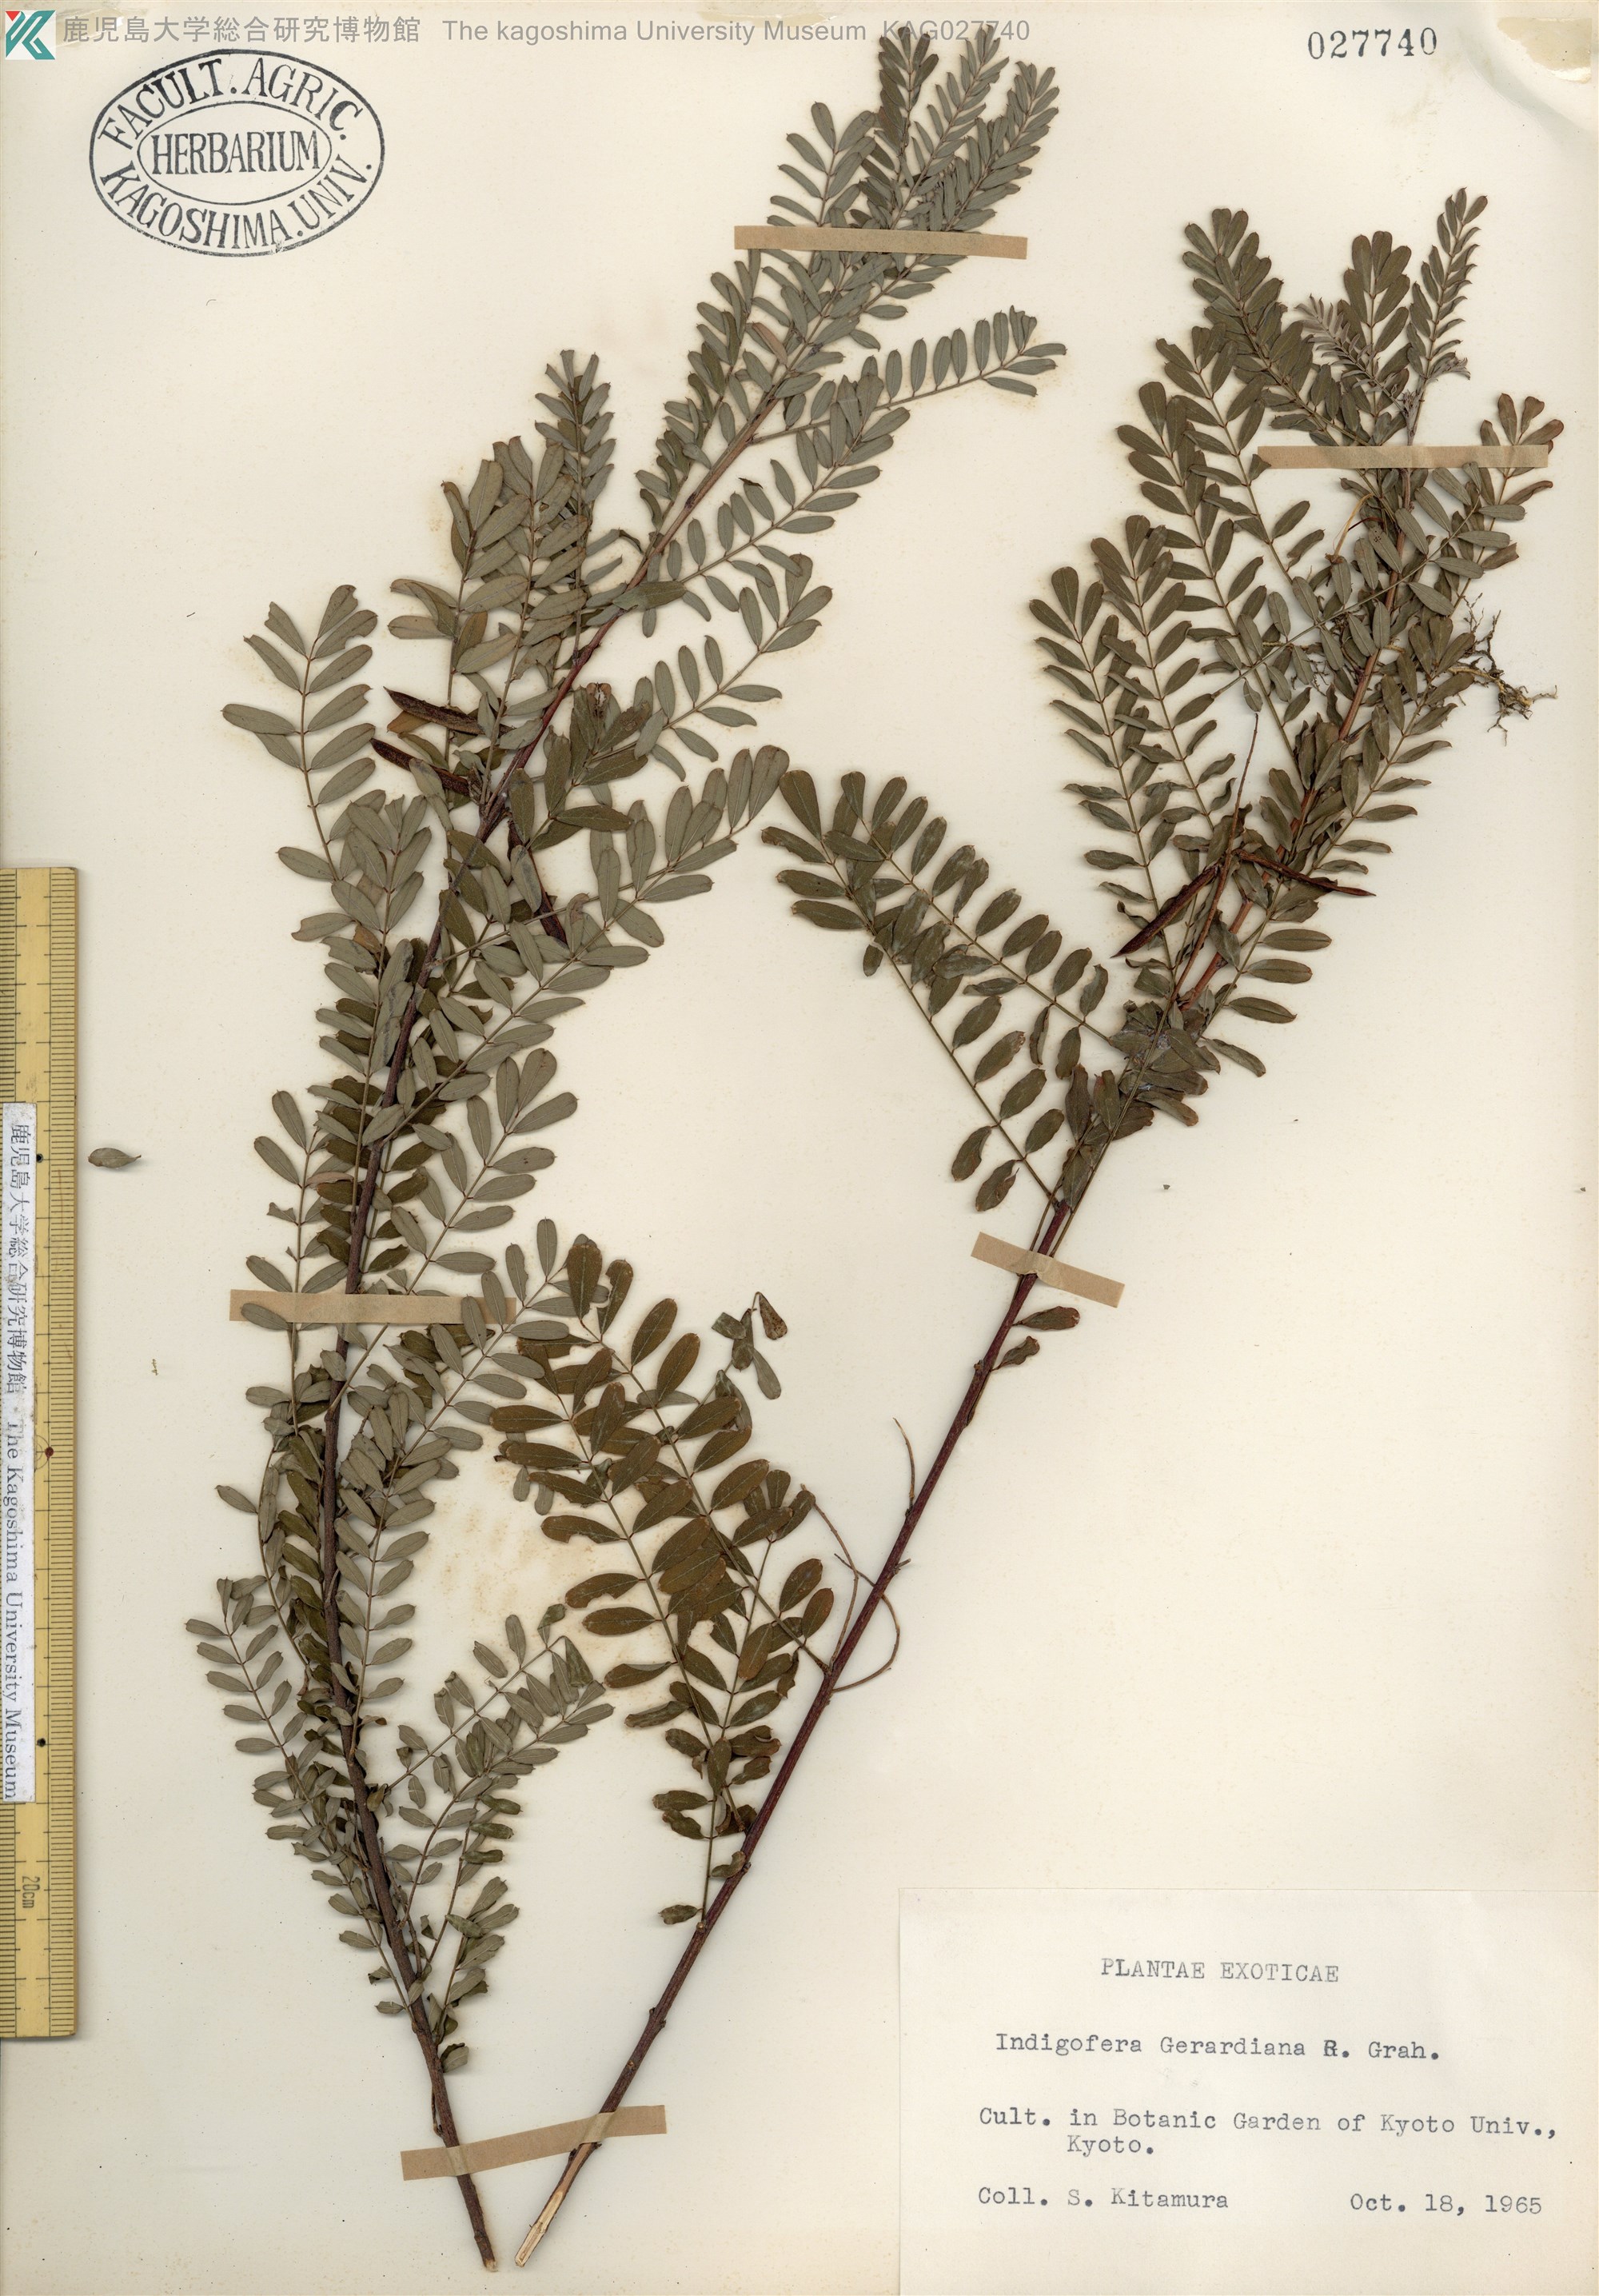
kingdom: Plantae
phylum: Tracheophyta
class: Magnoliopsida
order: Fabales
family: Fabaceae
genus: Indigofera
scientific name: Indigofera heterantha
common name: Himalayan indigo
